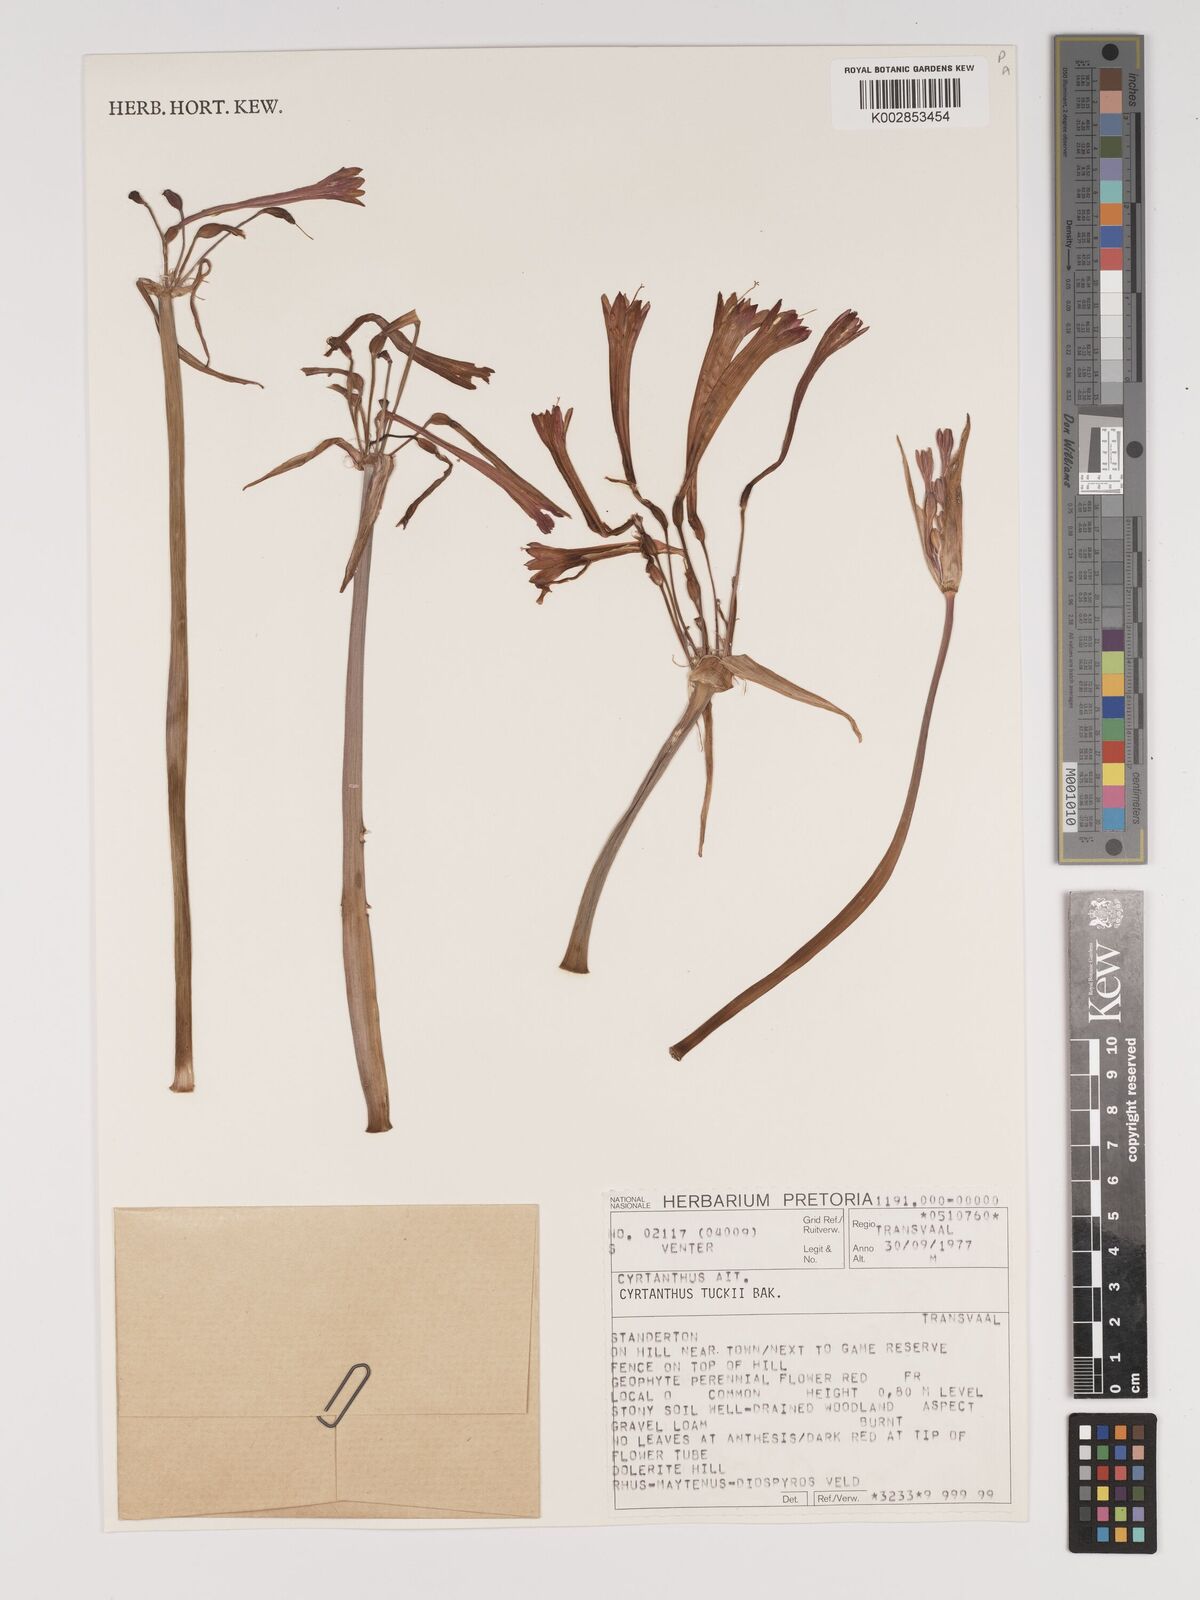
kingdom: Plantae
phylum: Tracheophyta
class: Liliopsida
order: Asparagales
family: Amaryllidaceae
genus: Cyrtanthus
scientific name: Cyrtanthus tuckii
